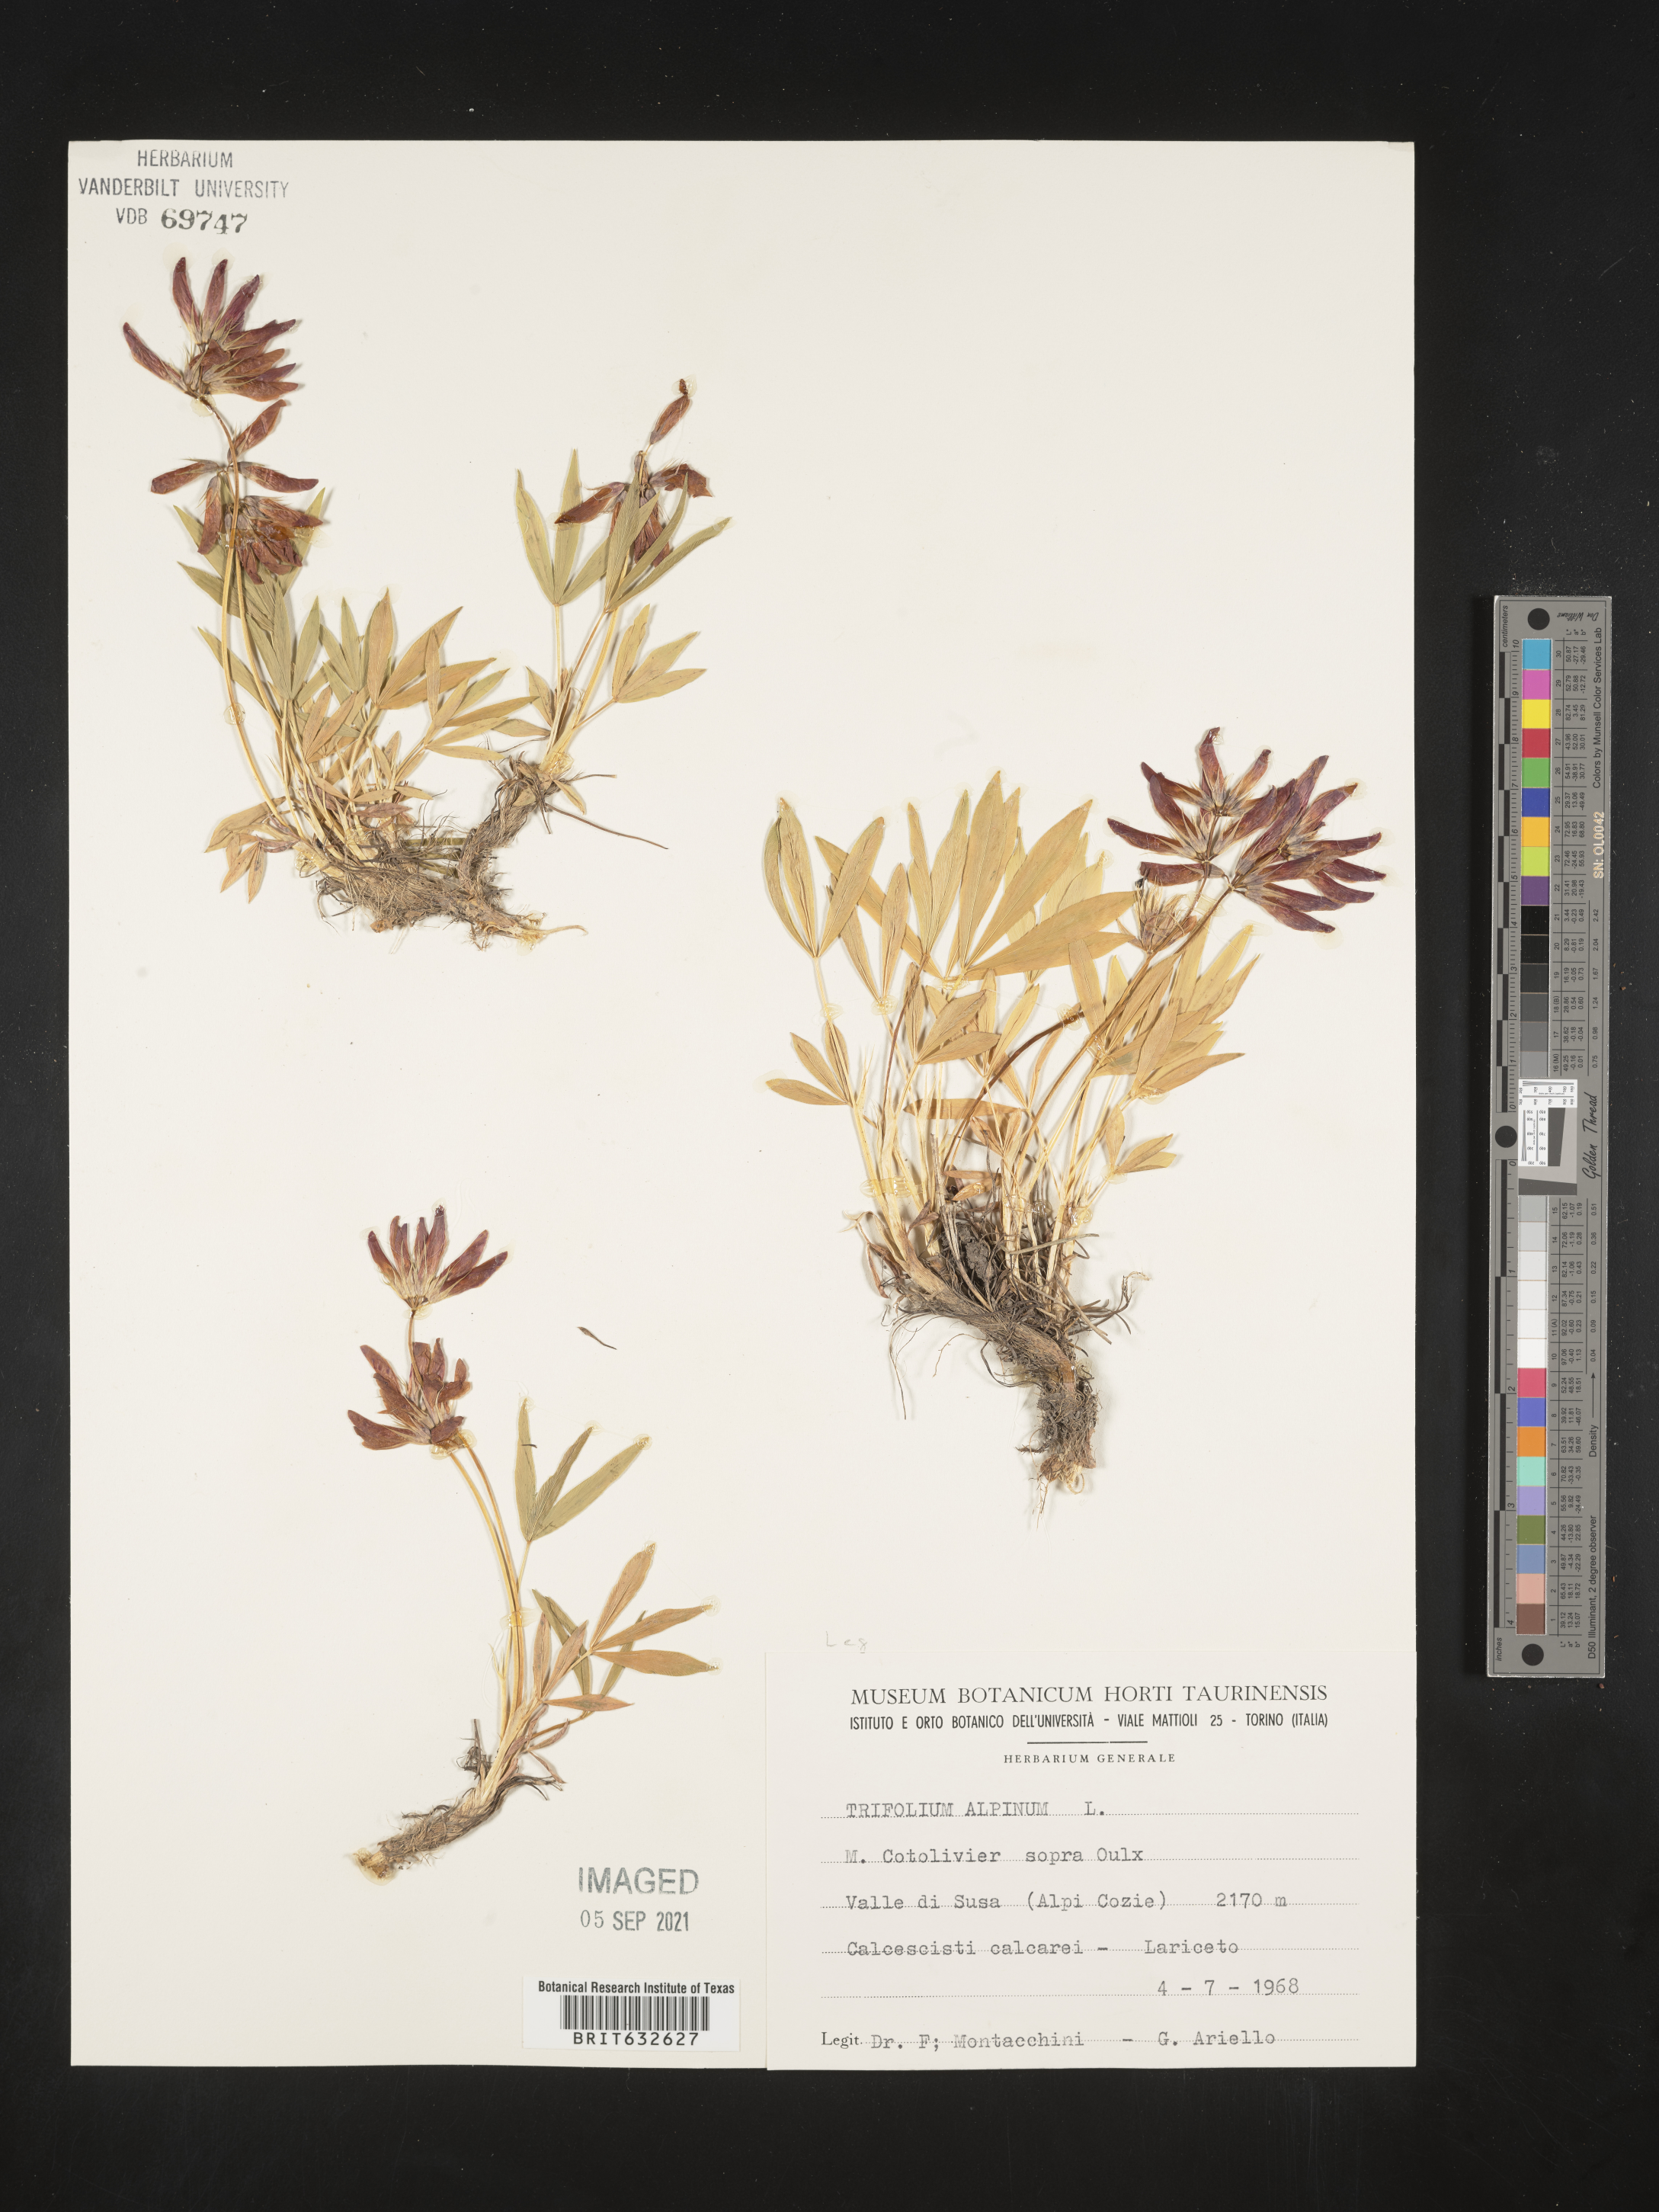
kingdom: Plantae
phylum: Tracheophyta
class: Magnoliopsida
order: Fabales
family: Fabaceae
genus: Trifolium
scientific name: Trifolium
